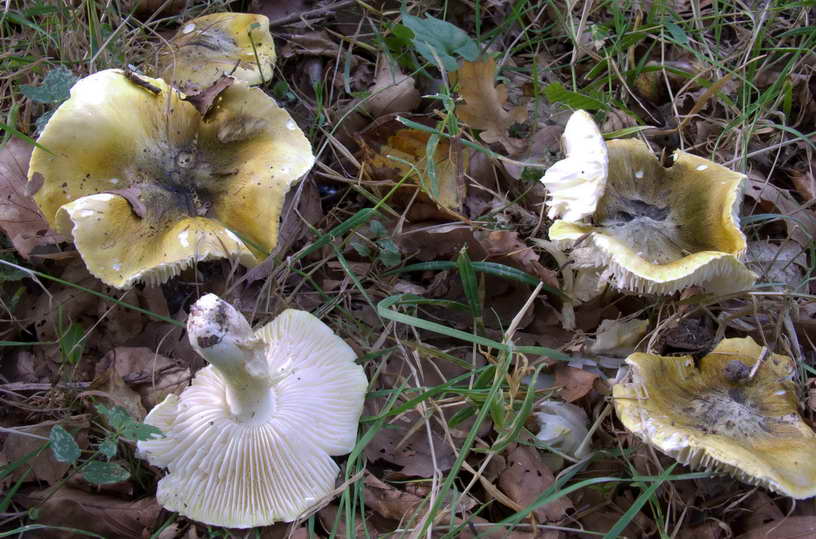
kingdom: Fungi
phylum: Basidiomycota
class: Agaricomycetes
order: Agaricales
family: Tricholomataceae
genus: Tricholoma
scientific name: Tricholoma sejunctum
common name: grøngul ridderhat
